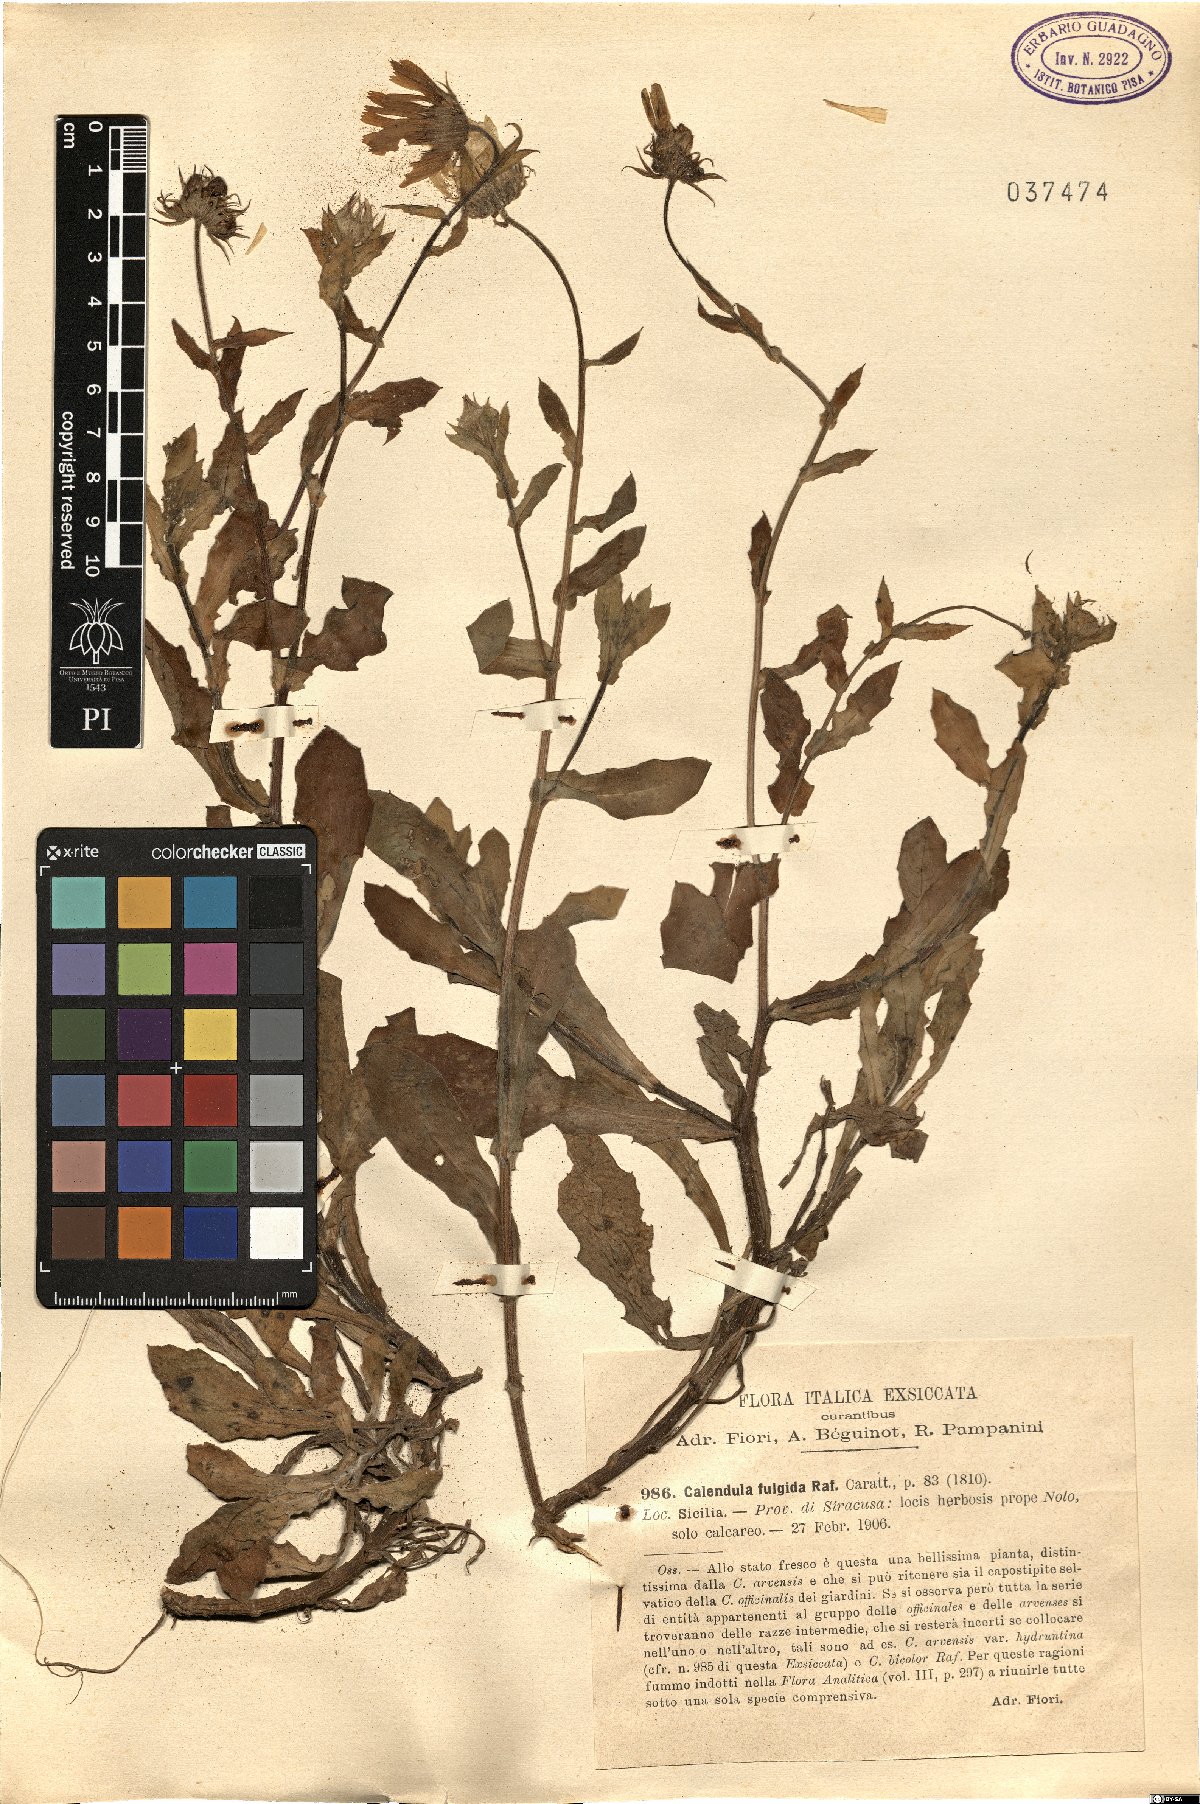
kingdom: Plantae
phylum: Tracheophyta
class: Magnoliopsida
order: Asterales
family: Asteraceae
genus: Calendula
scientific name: Calendula suffruticosa
